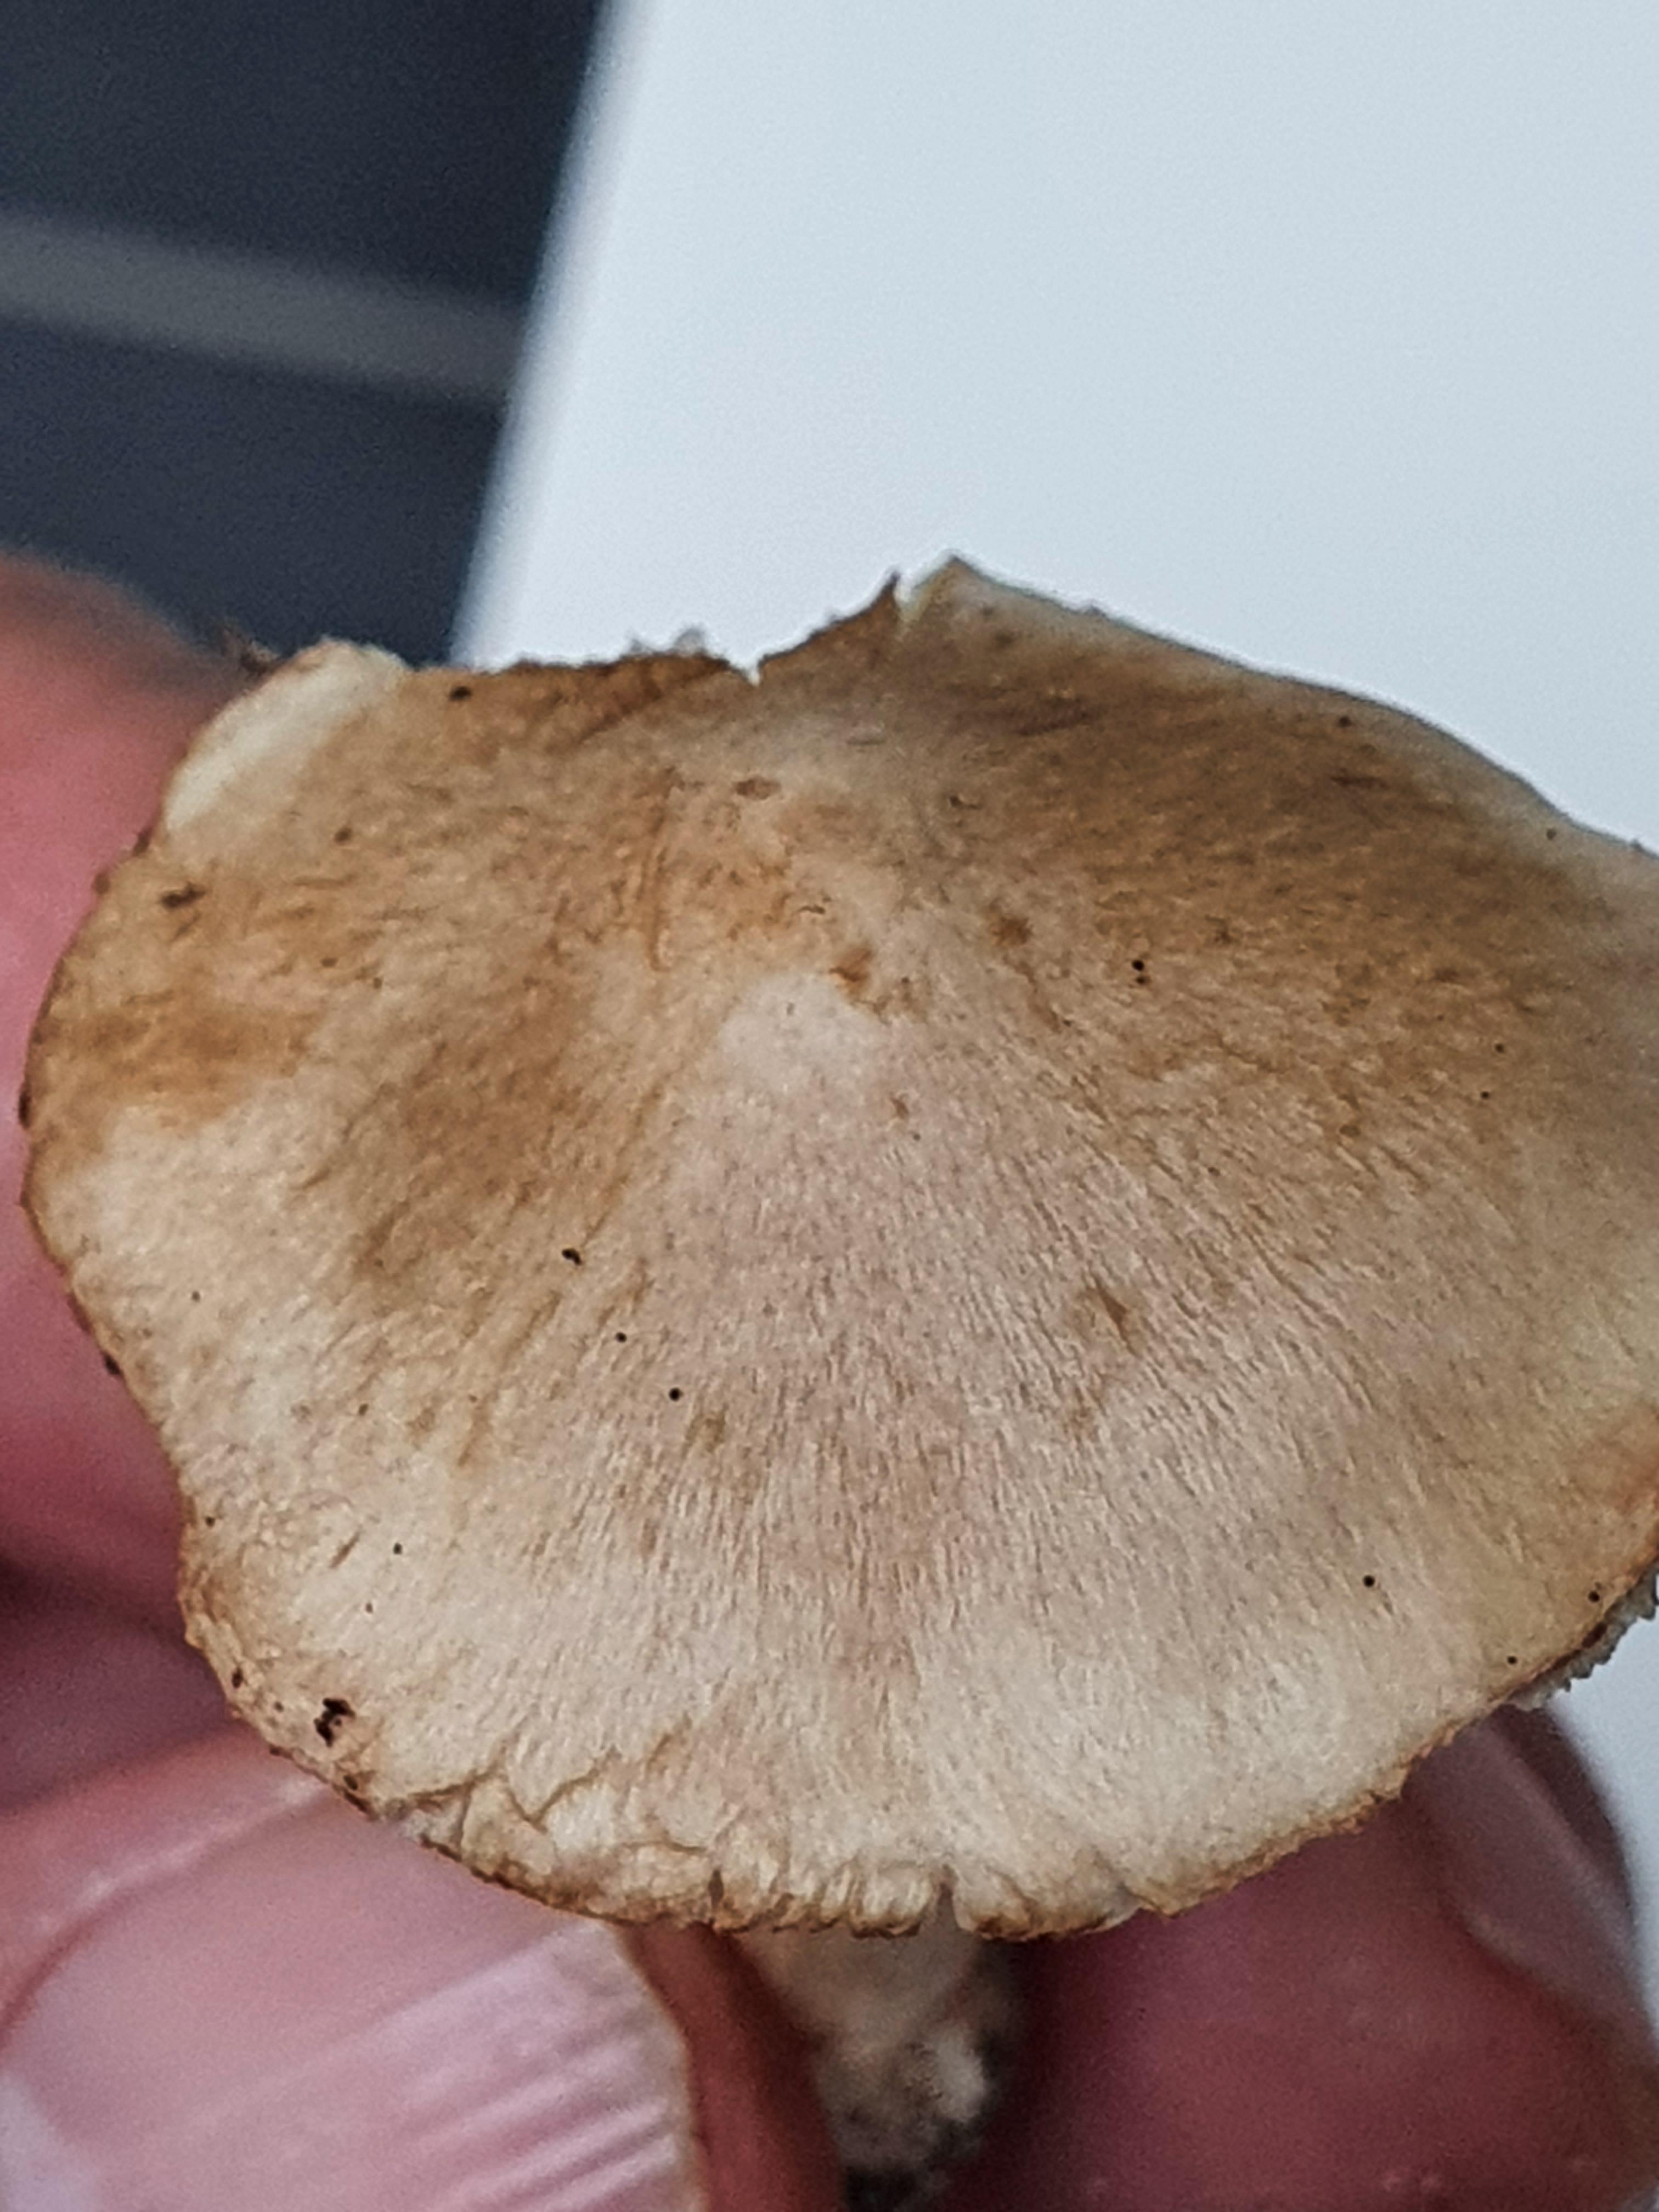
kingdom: Fungi
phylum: Basidiomycota
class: Agaricomycetes
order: Agaricales
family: Inocybaceae
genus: Inocybe
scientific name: Inocybe ochroalba
